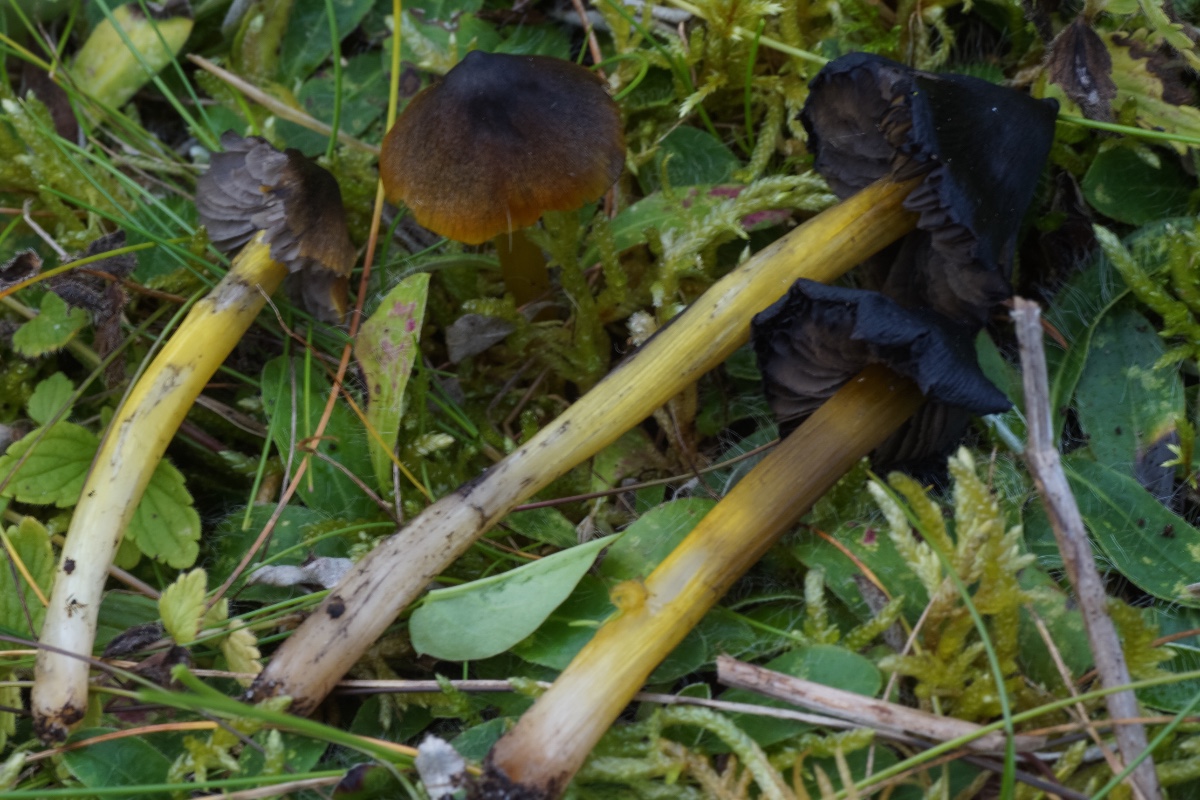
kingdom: Fungi
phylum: Basidiomycota
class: Agaricomycetes
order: Agaricales
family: Hygrophoraceae
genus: Hygrocybe
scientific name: Hygrocybe conica
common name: kegle-vokshat
